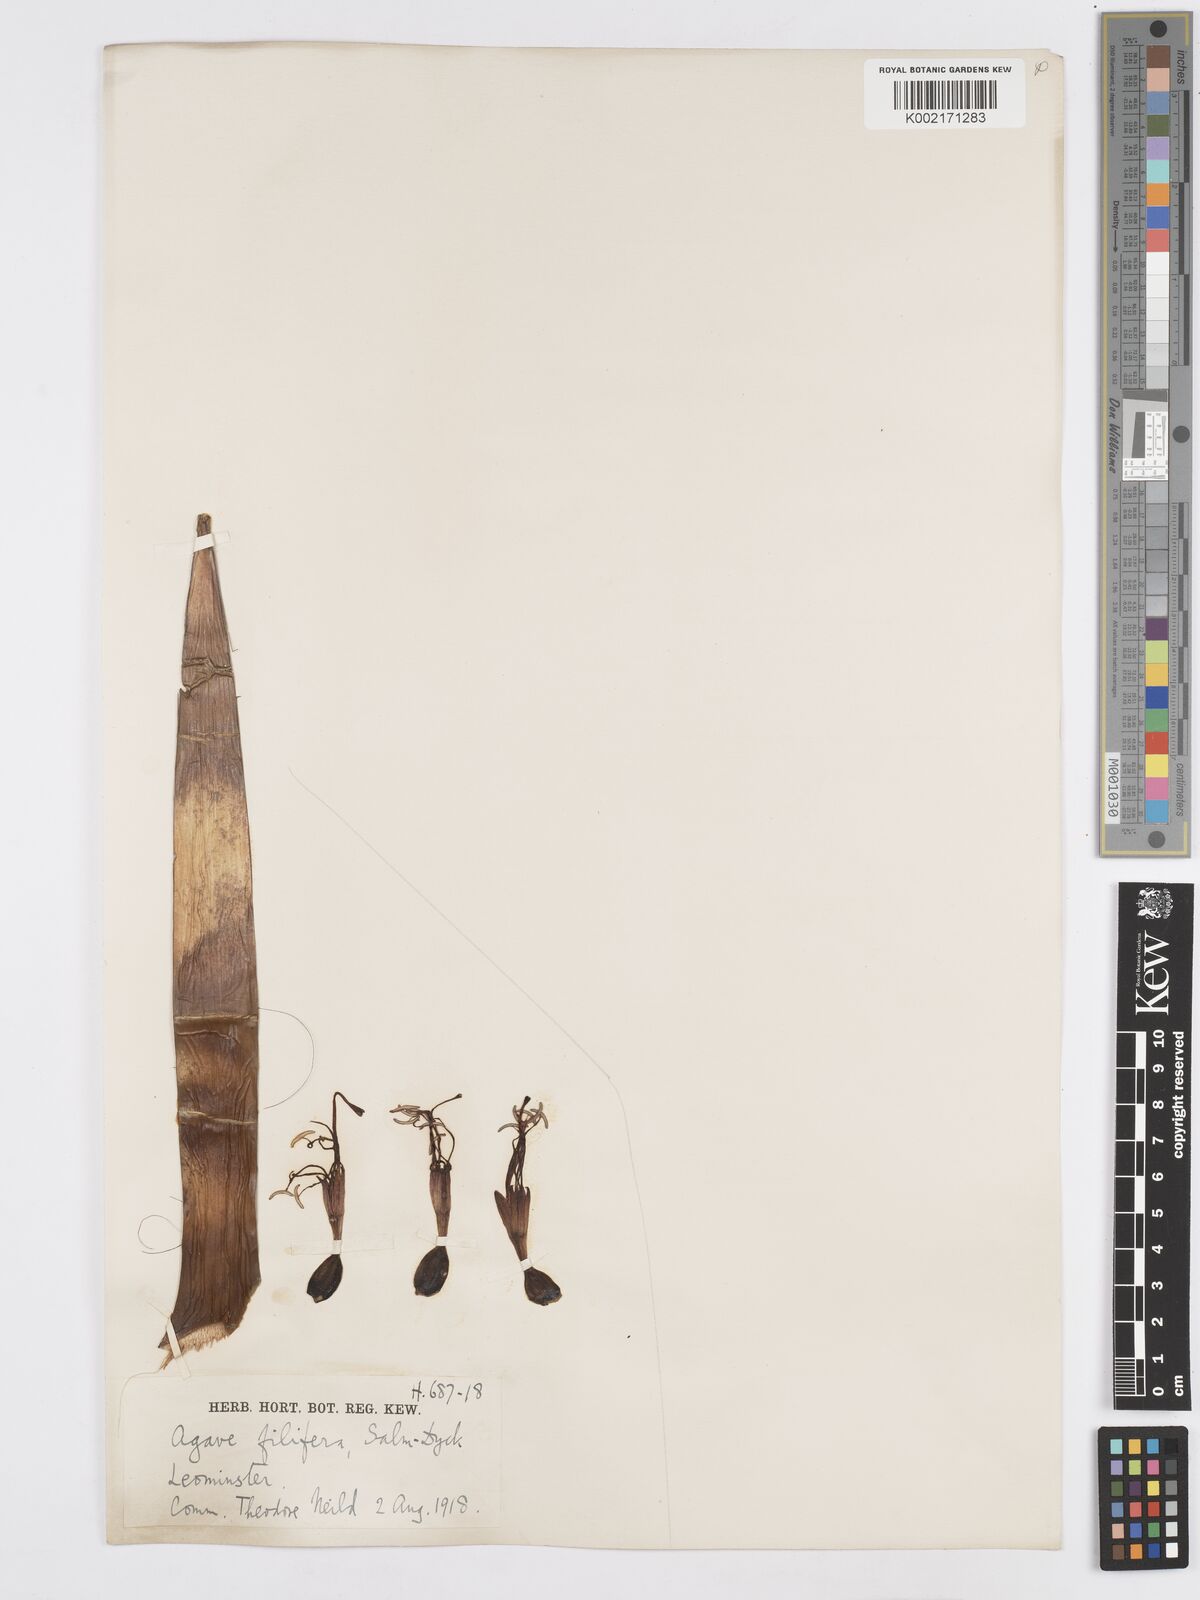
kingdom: Plantae
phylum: Tracheophyta
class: Liliopsida
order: Asparagales
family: Asparagaceae
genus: Agave
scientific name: Agave filifera
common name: Thread agave
